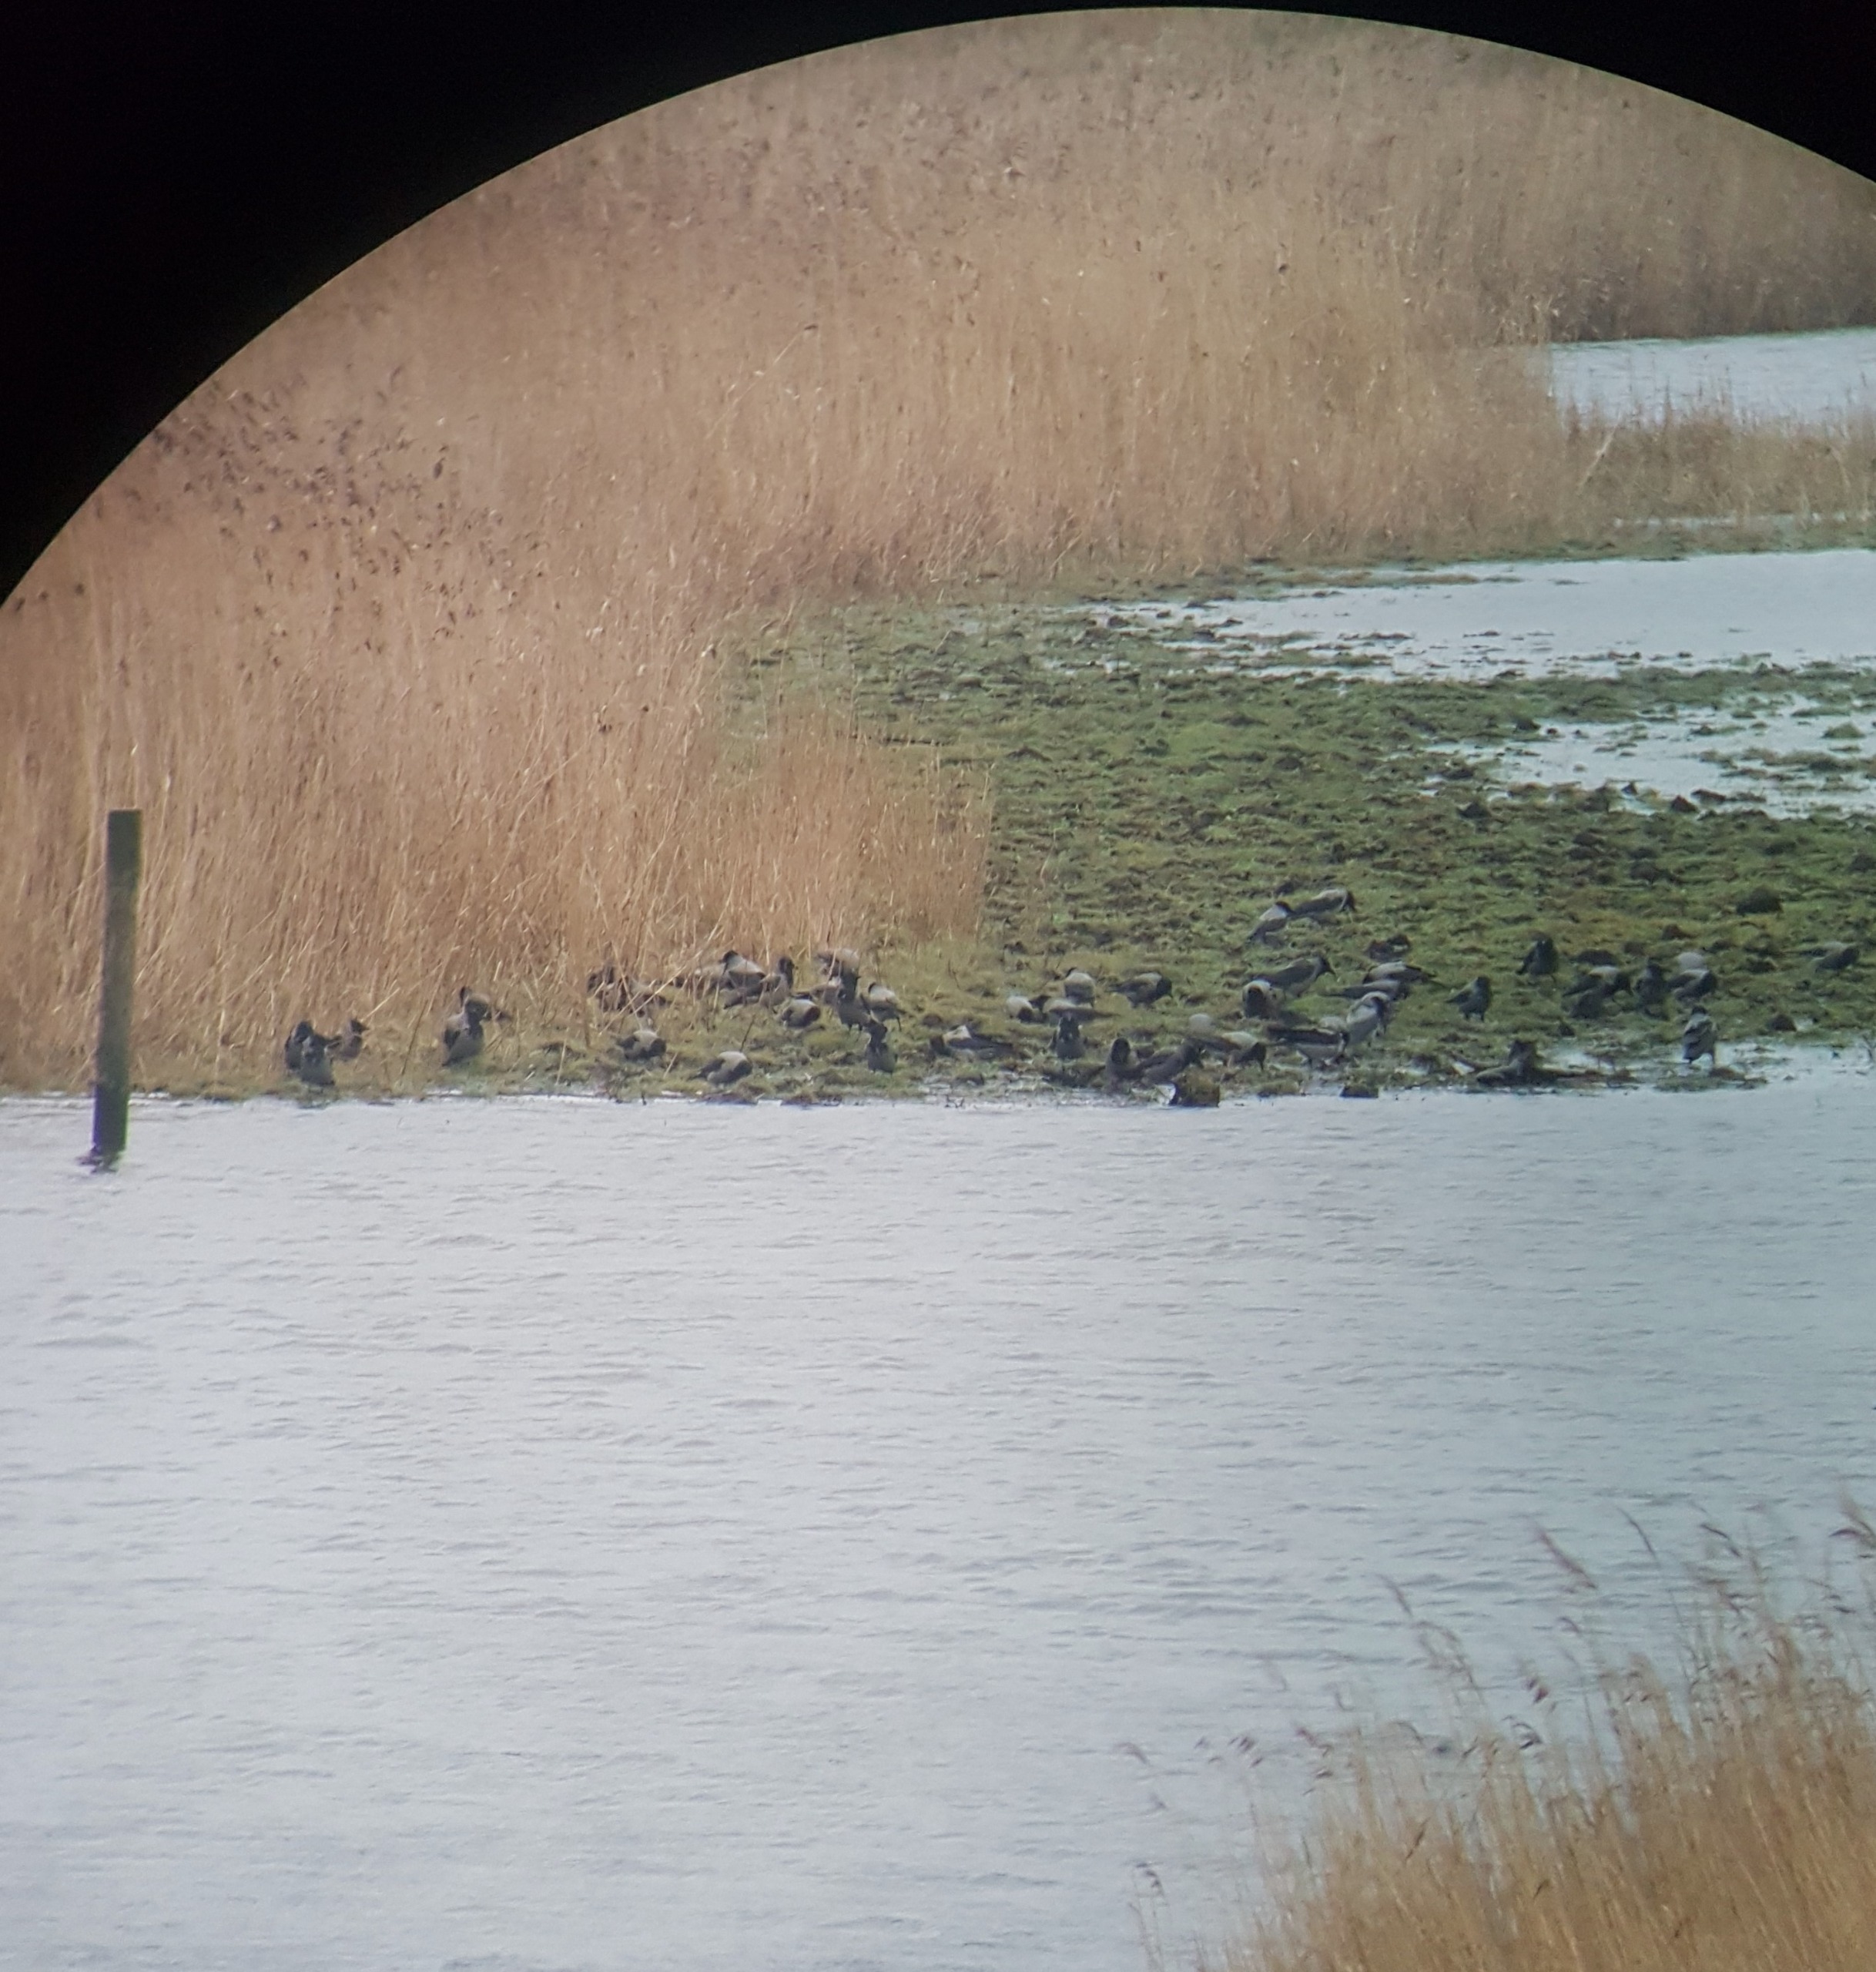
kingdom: Animalia
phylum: Chordata
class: Aves
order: Passeriformes
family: Corvidae
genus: Corvus
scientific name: Corvus cornix
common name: Gråkrage
